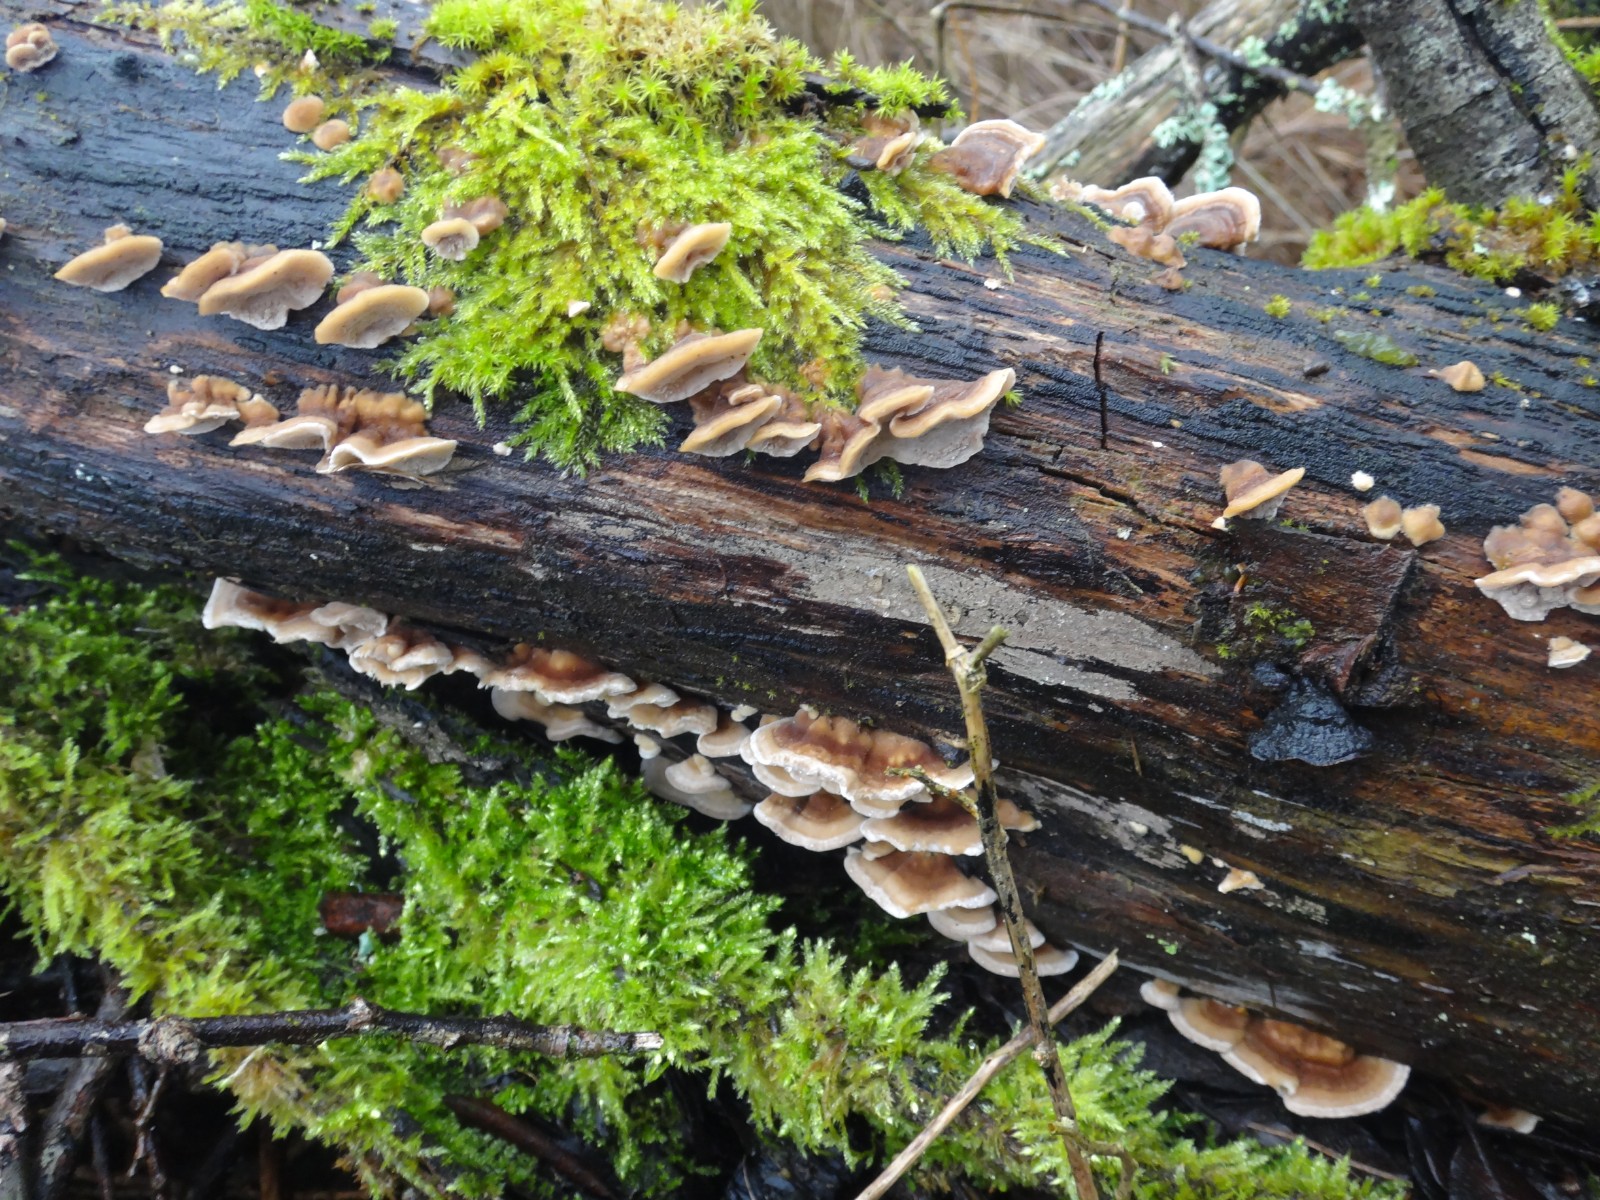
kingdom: Fungi
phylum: Basidiomycota
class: Agaricomycetes
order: Polyporales
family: Polyporaceae
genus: Trametes
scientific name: Trametes ochracea
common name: bæltet læderporesvamp
